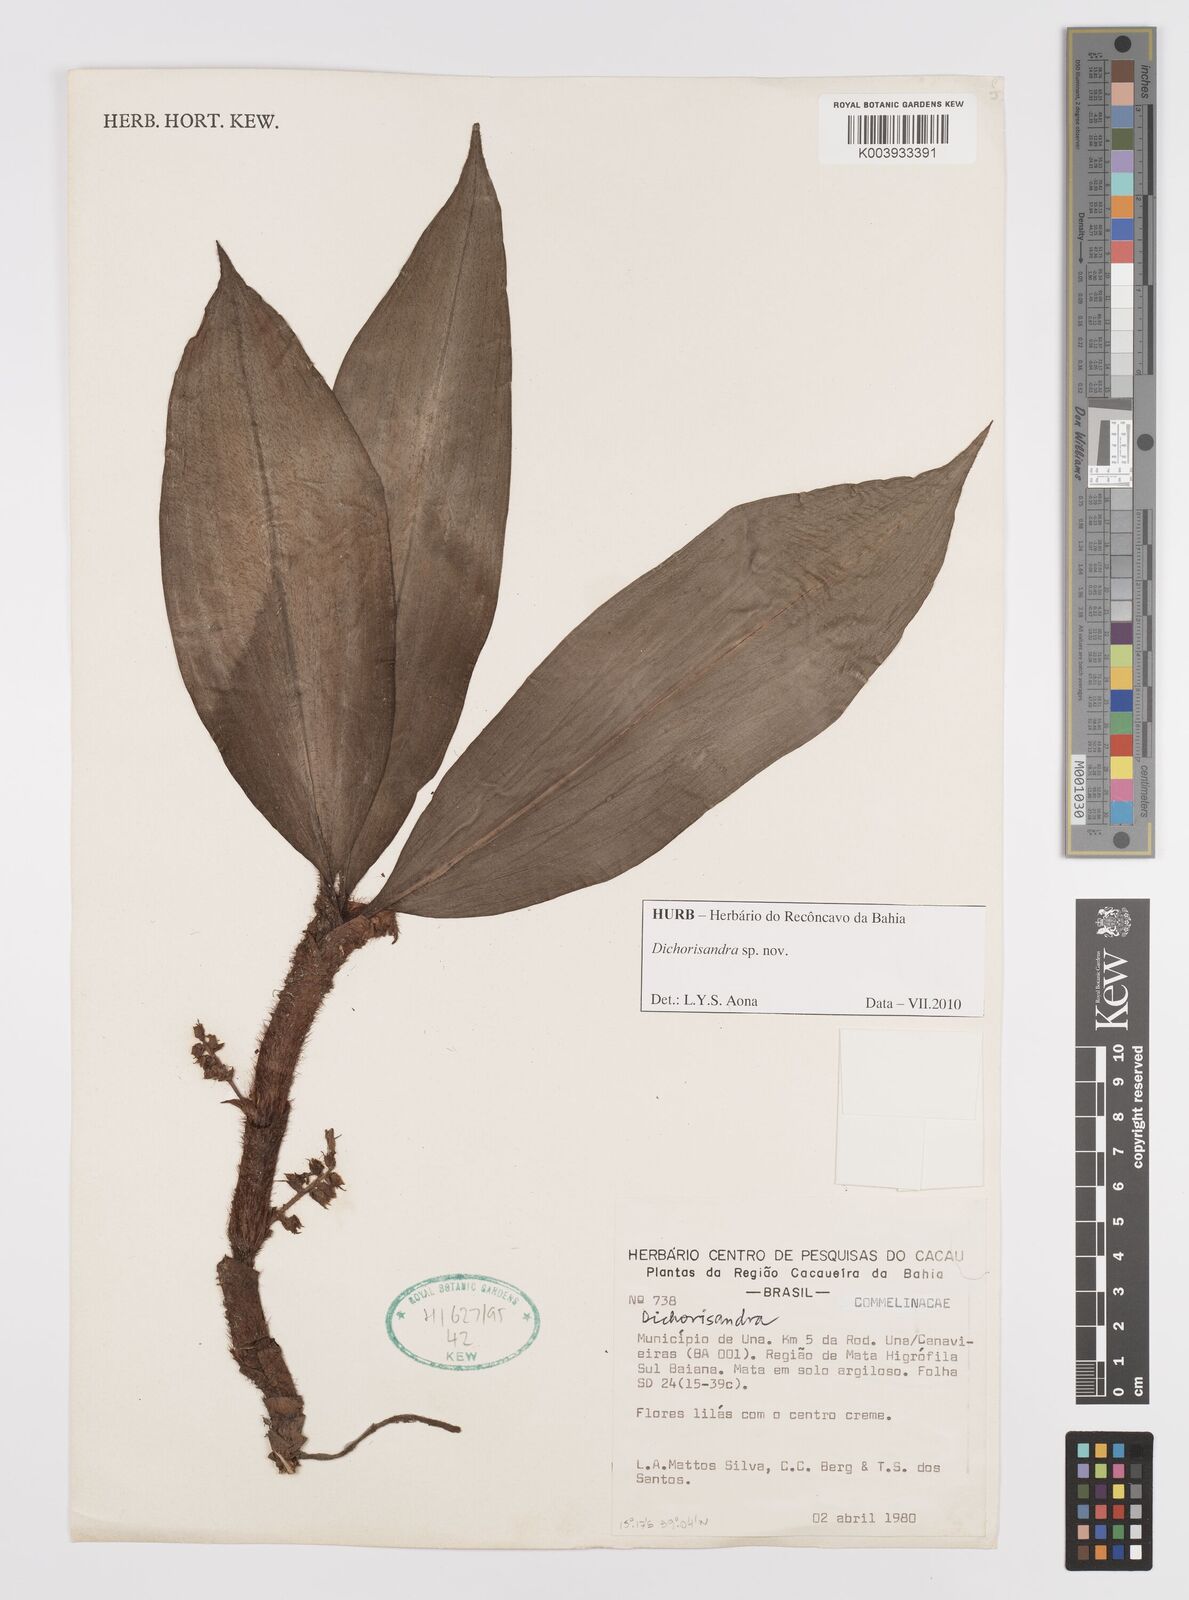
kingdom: Plantae
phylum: Tracheophyta
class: Liliopsida
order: Commelinales
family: Commelinaceae
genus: Dichorisandra
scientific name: Dichorisandra
